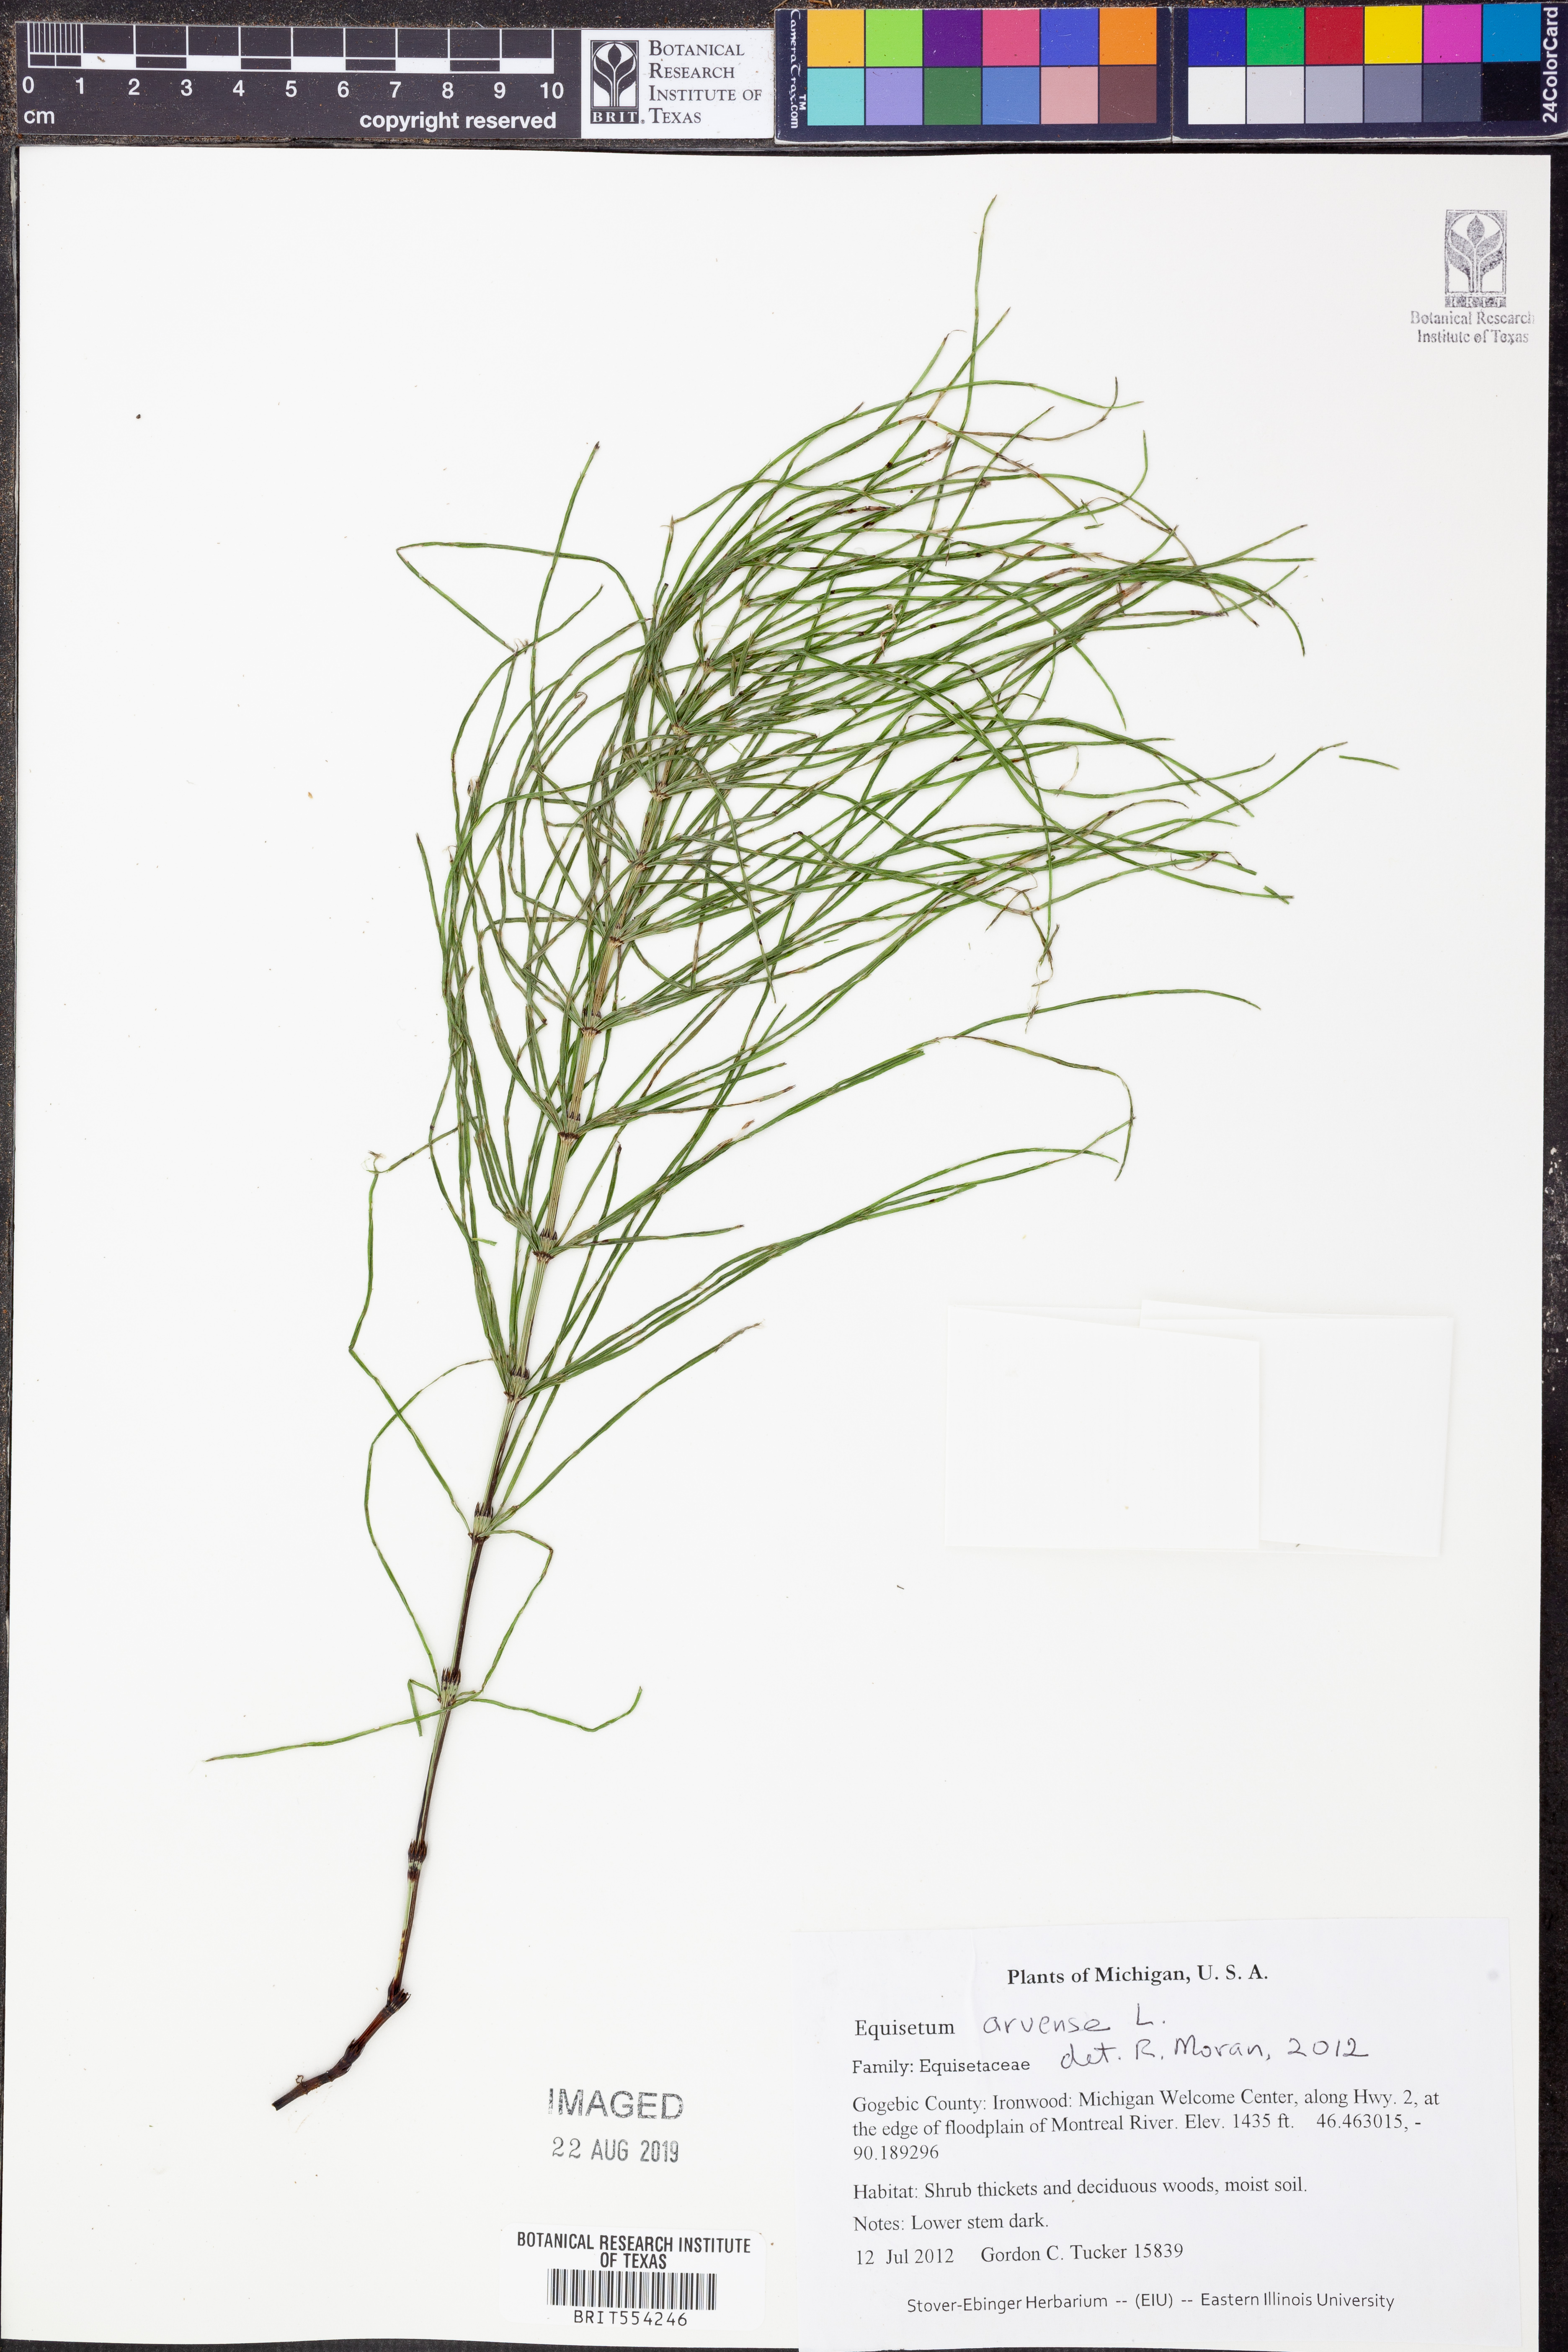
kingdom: Plantae
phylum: Tracheophyta
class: Polypodiopsida
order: Equisetales
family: Equisetaceae
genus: Equisetum
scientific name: Equisetum arvense
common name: Field horsetail
